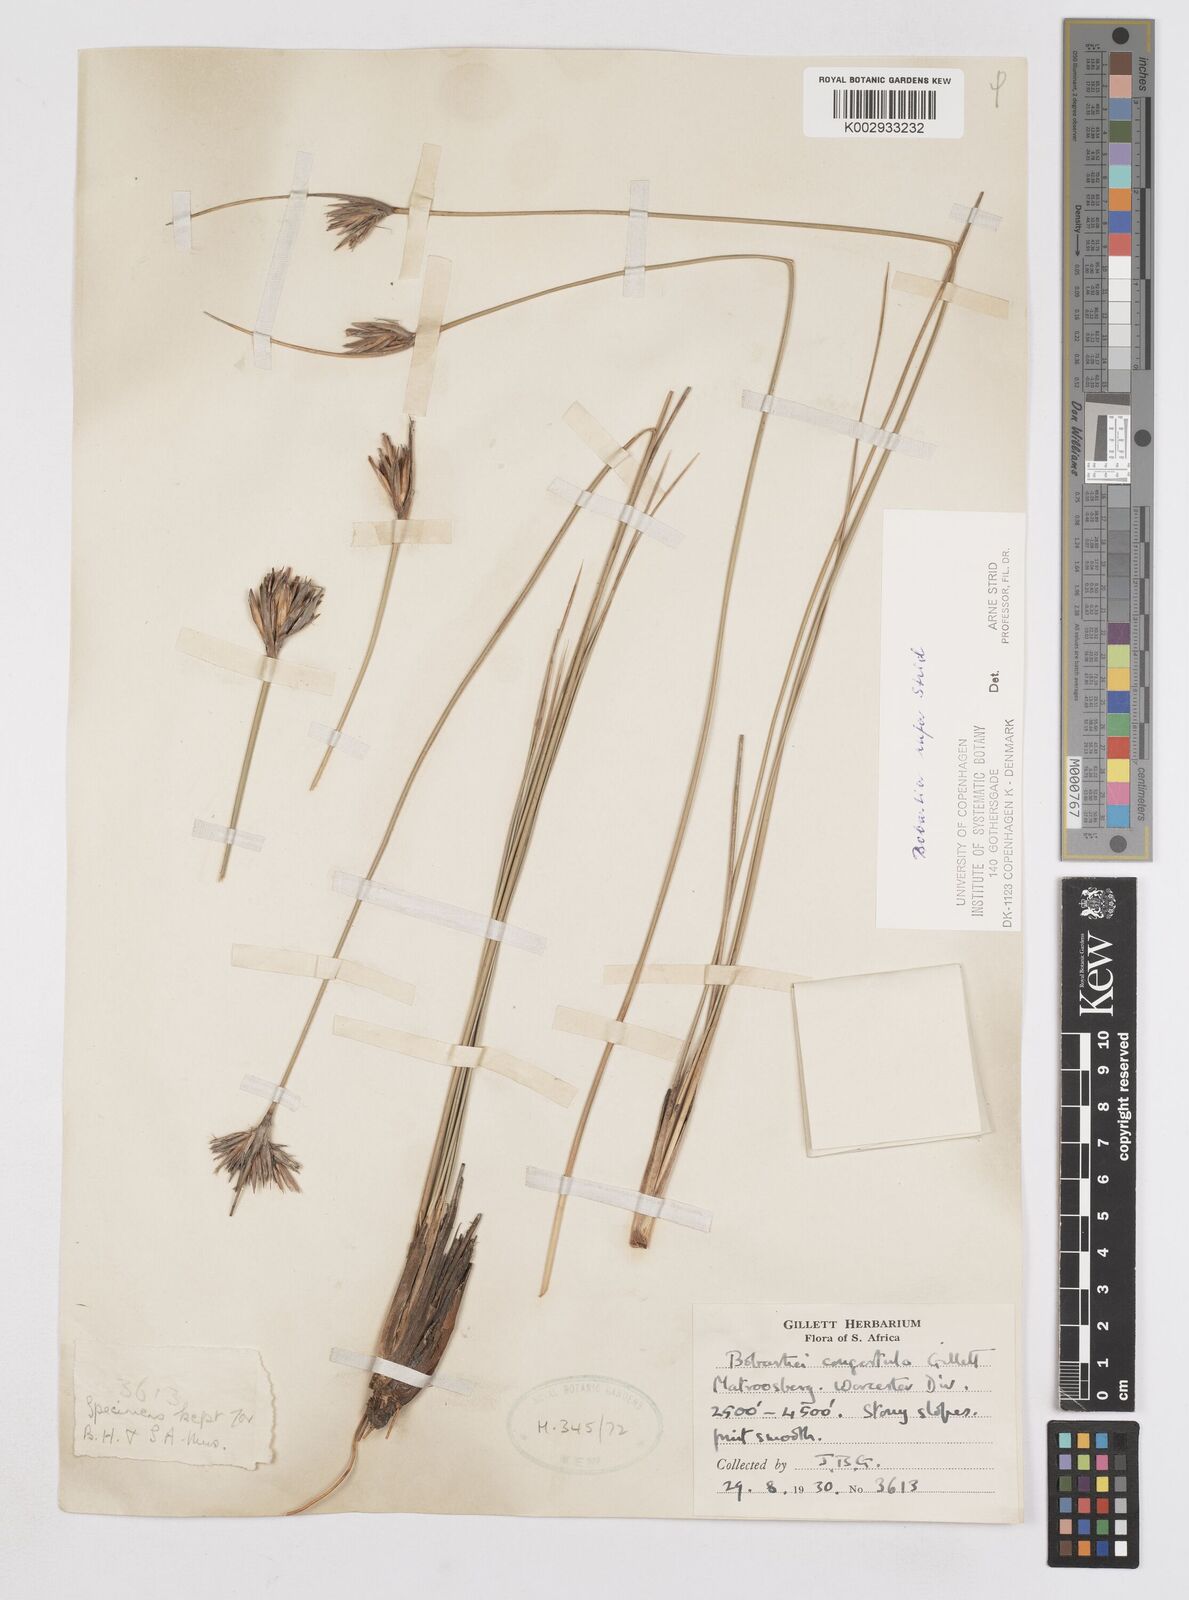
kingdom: Plantae
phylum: Tracheophyta
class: Liliopsida
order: Asparagales
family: Iridaceae
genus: Bobartia
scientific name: Bobartia rufa
